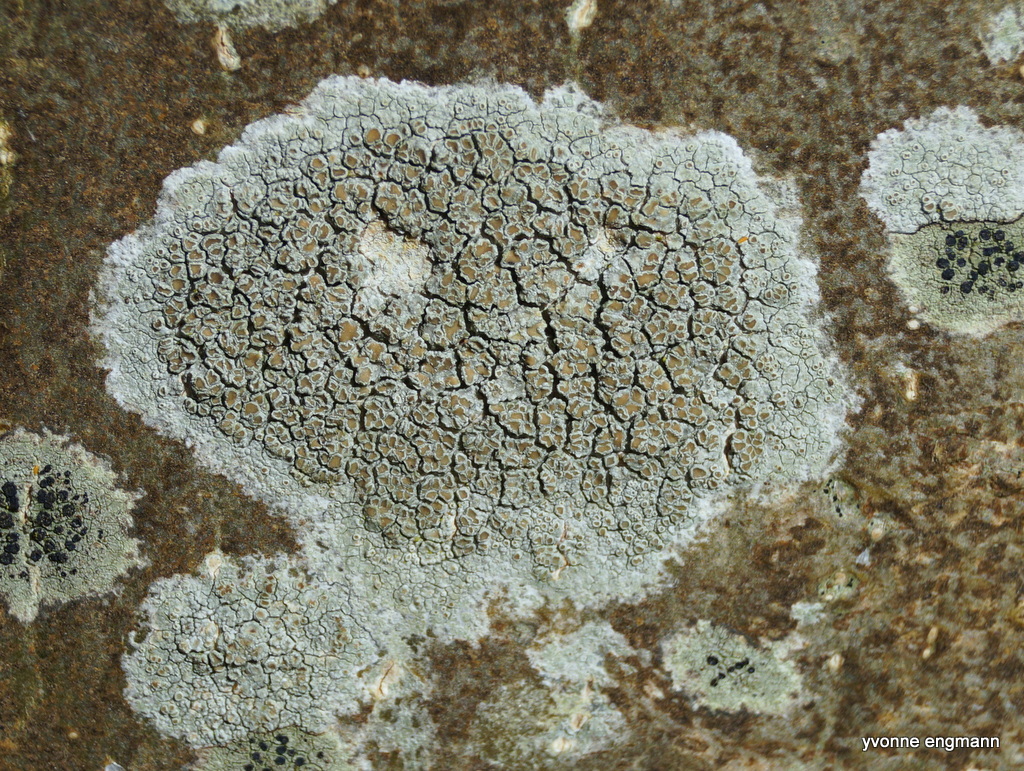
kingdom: Fungi
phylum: Ascomycota
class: Lecanoromycetes
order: Lecanorales
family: Lecanoraceae
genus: Lecanora
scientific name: Lecanora chlarotera
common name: brun kantskivelav
